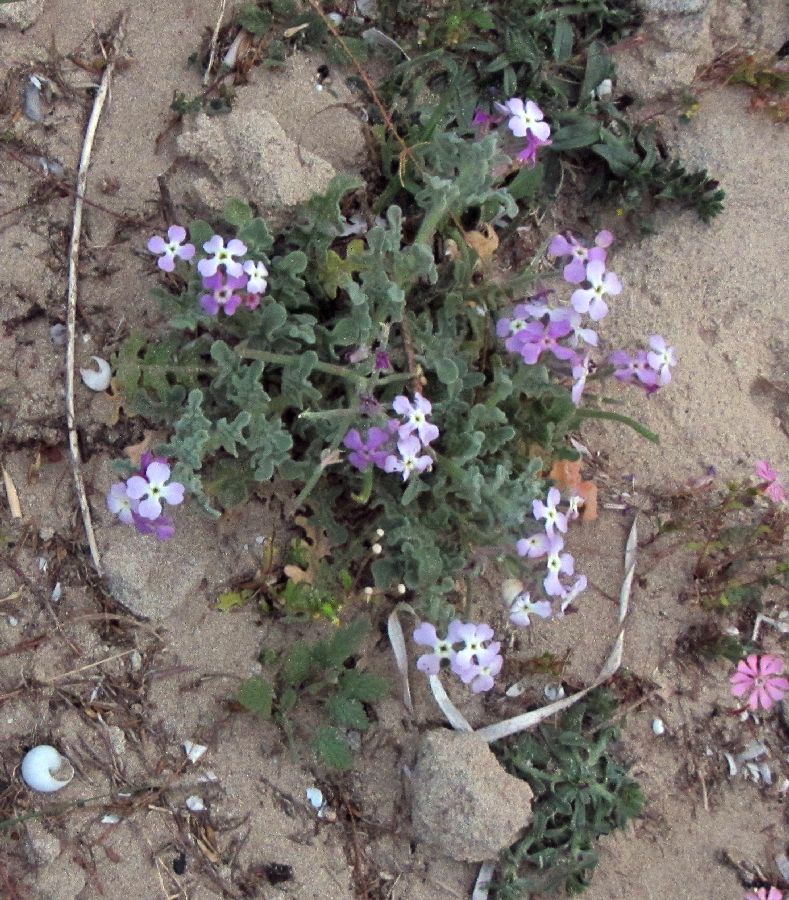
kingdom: Plantae
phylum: Tracheophyta
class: Magnoliopsida
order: Brassicales
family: Brassicaceae
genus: Matthiola
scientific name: Matthiola tricuspidata
